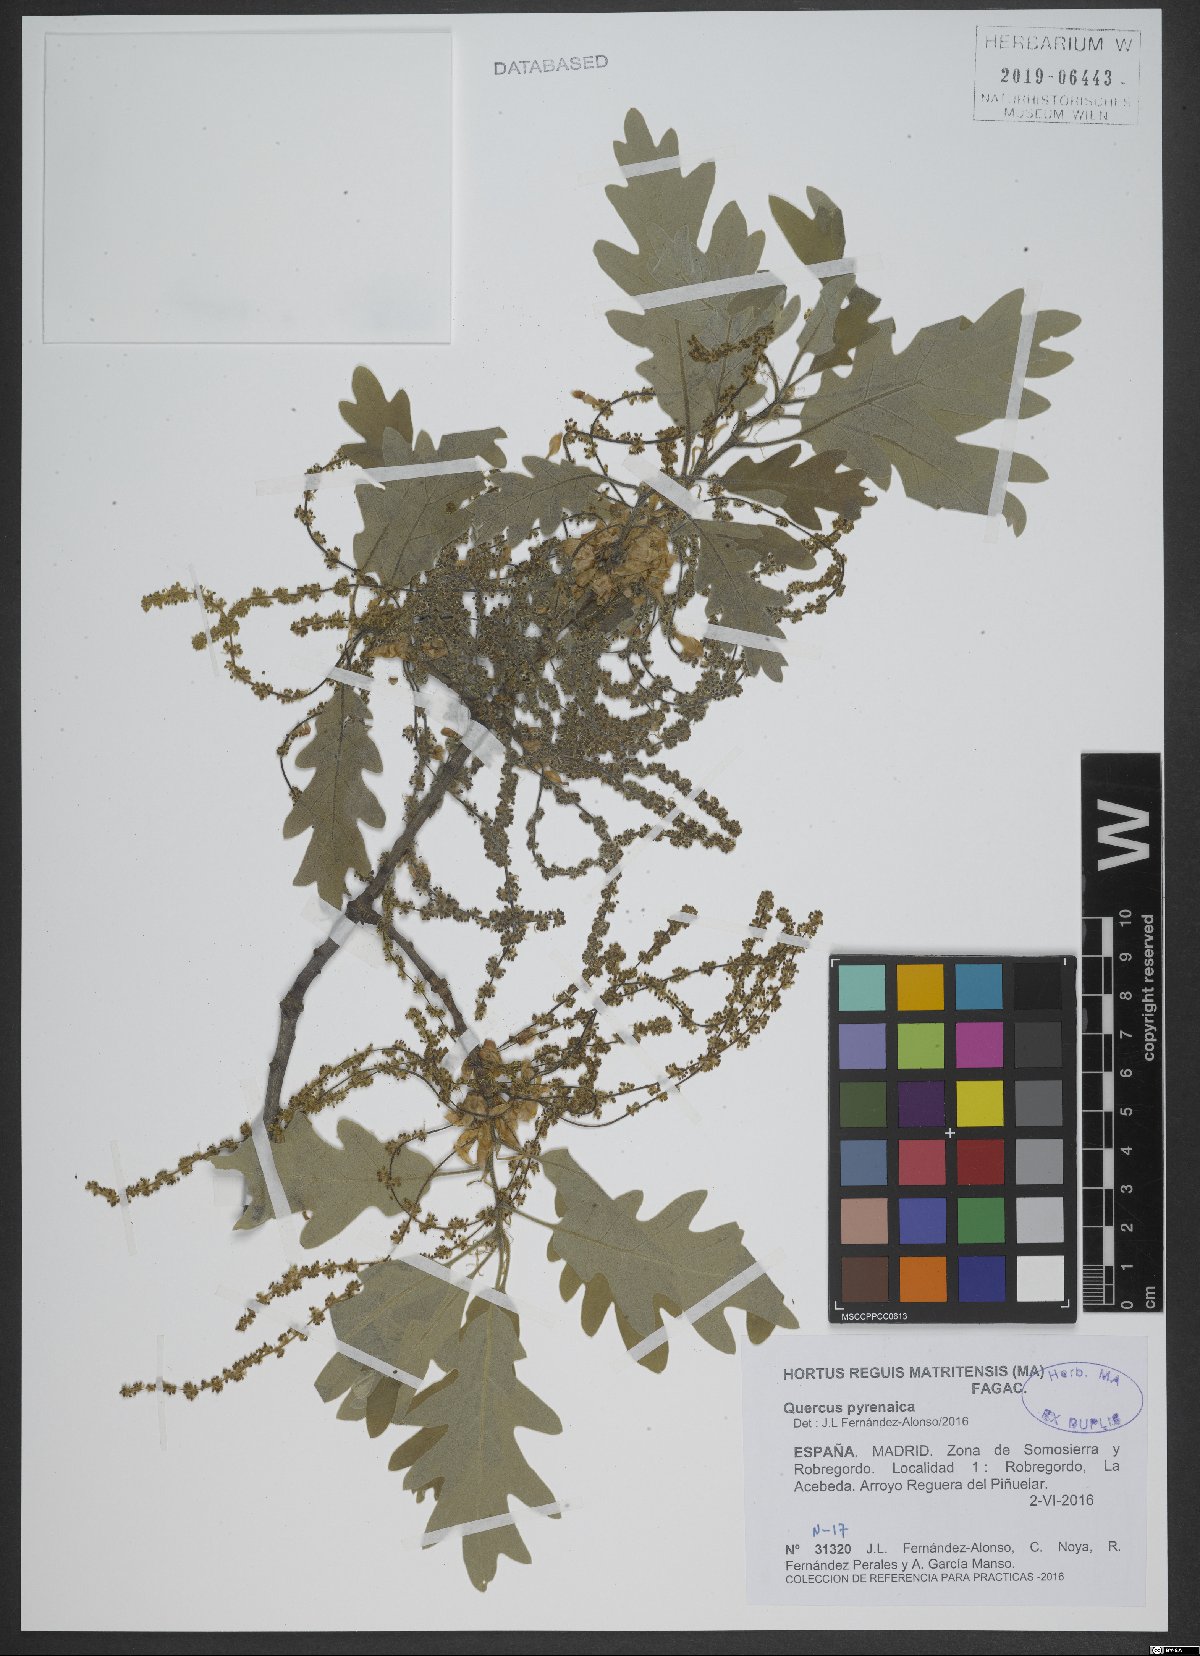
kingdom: Plantae
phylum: Tracheophyta
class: Magnoliopsida
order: Fagales
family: Fagaceae
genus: Quercus
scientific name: Quercus pyrenaica
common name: Pyrenean oak
